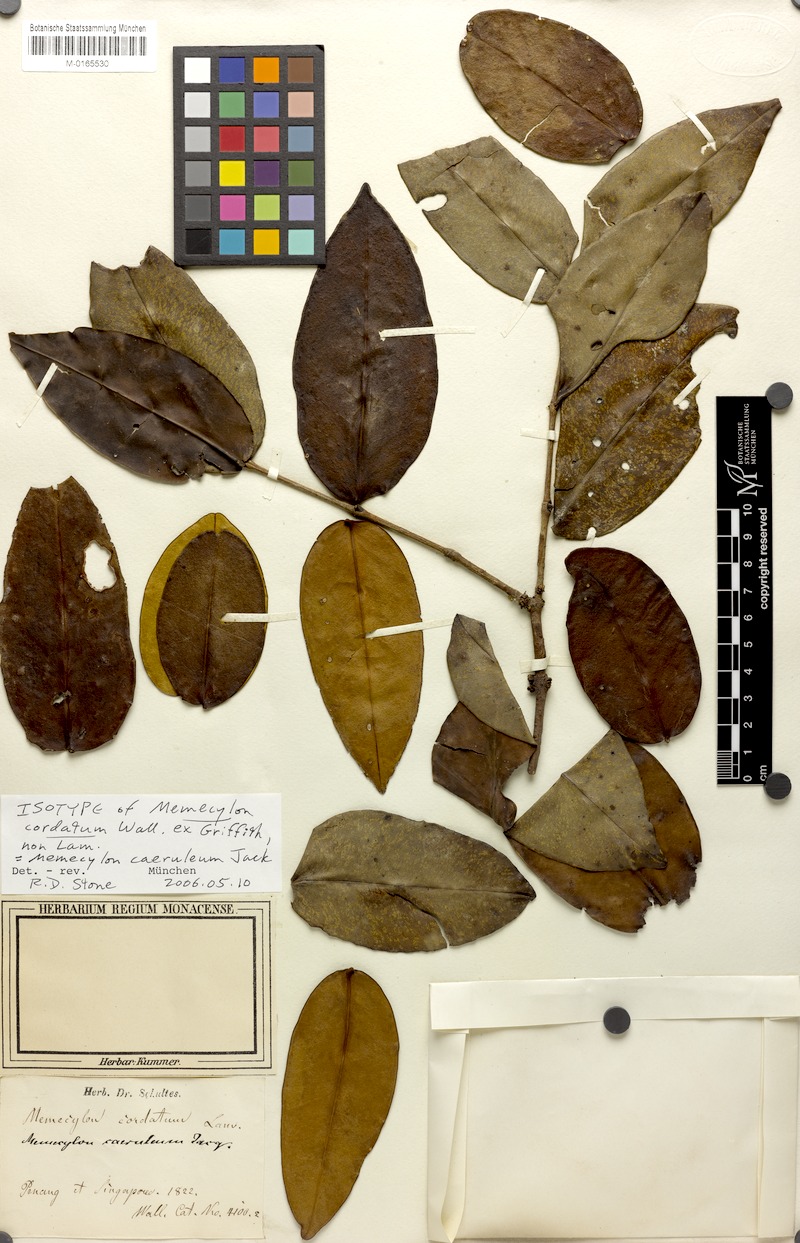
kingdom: Plantae
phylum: Tracheophyta
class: Magnoliopsida
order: Myrtales
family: Melastomataceae
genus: Memecylon
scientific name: Memecylon caeruleum
